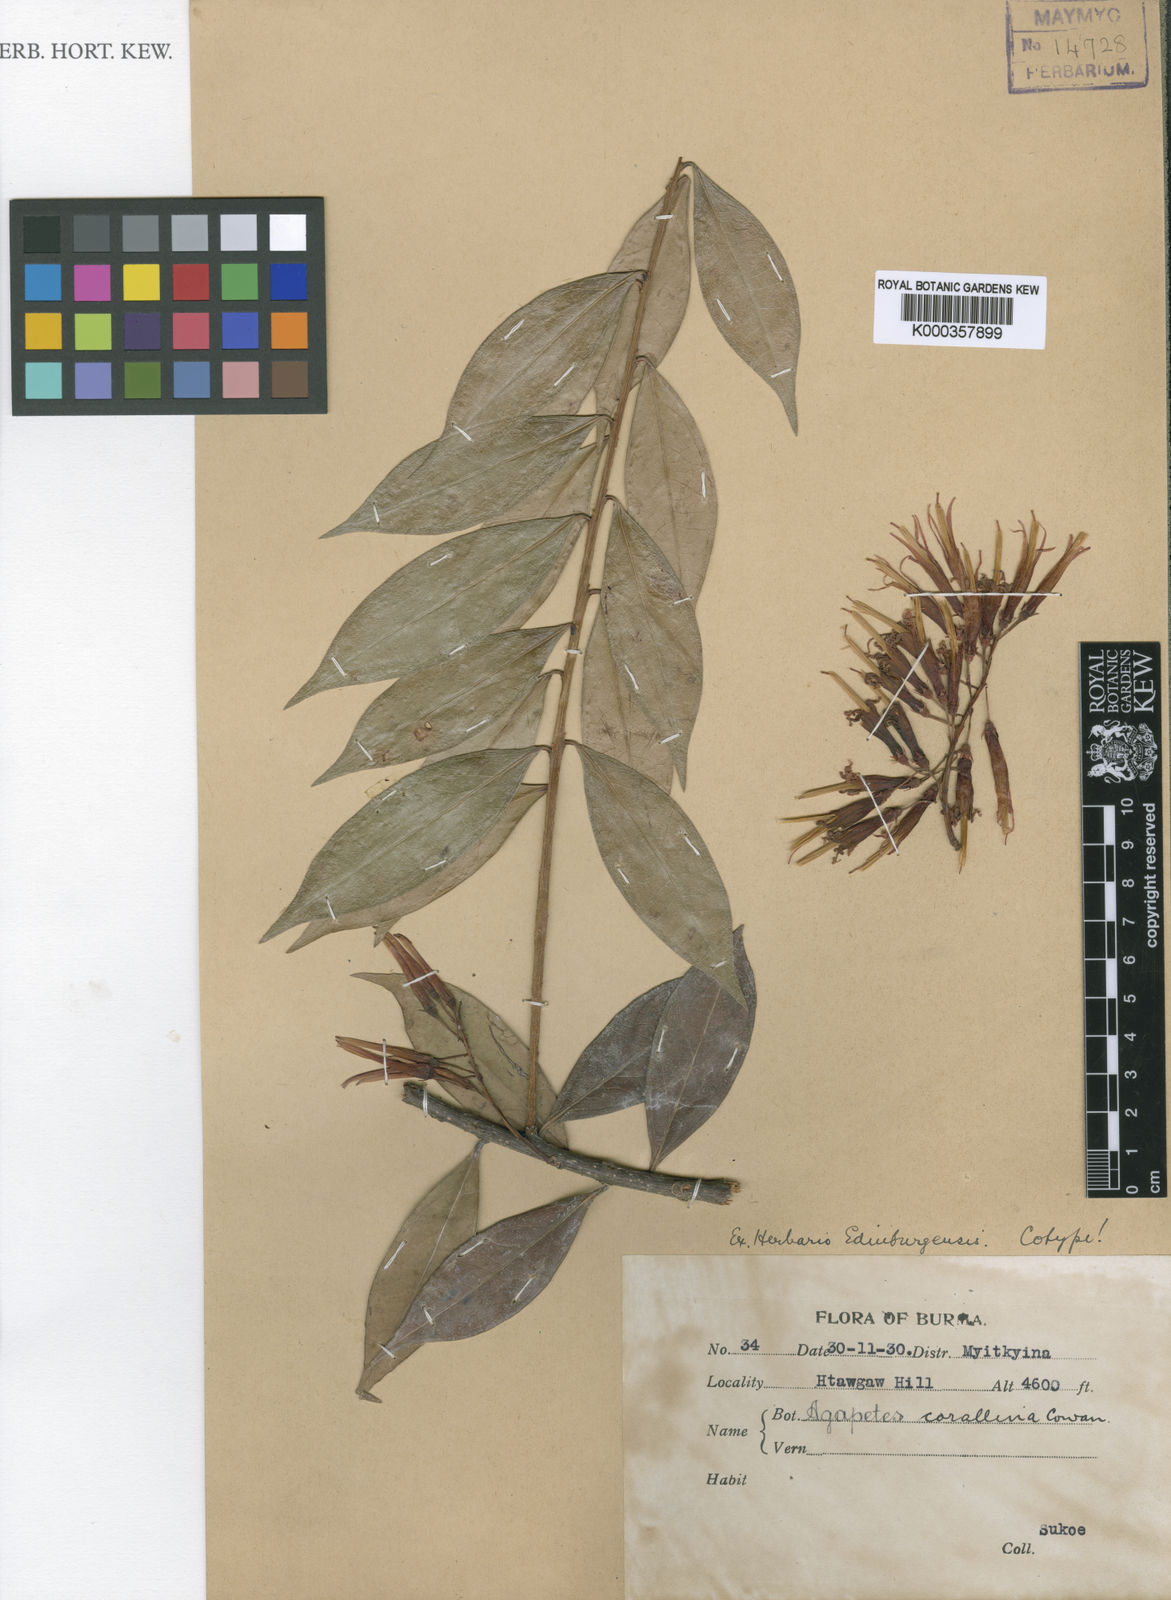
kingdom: Plantae
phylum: Tracheophyta
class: Magnoliopsida
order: Ericales
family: Ericaceae
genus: Agapetes
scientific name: Agapetes
